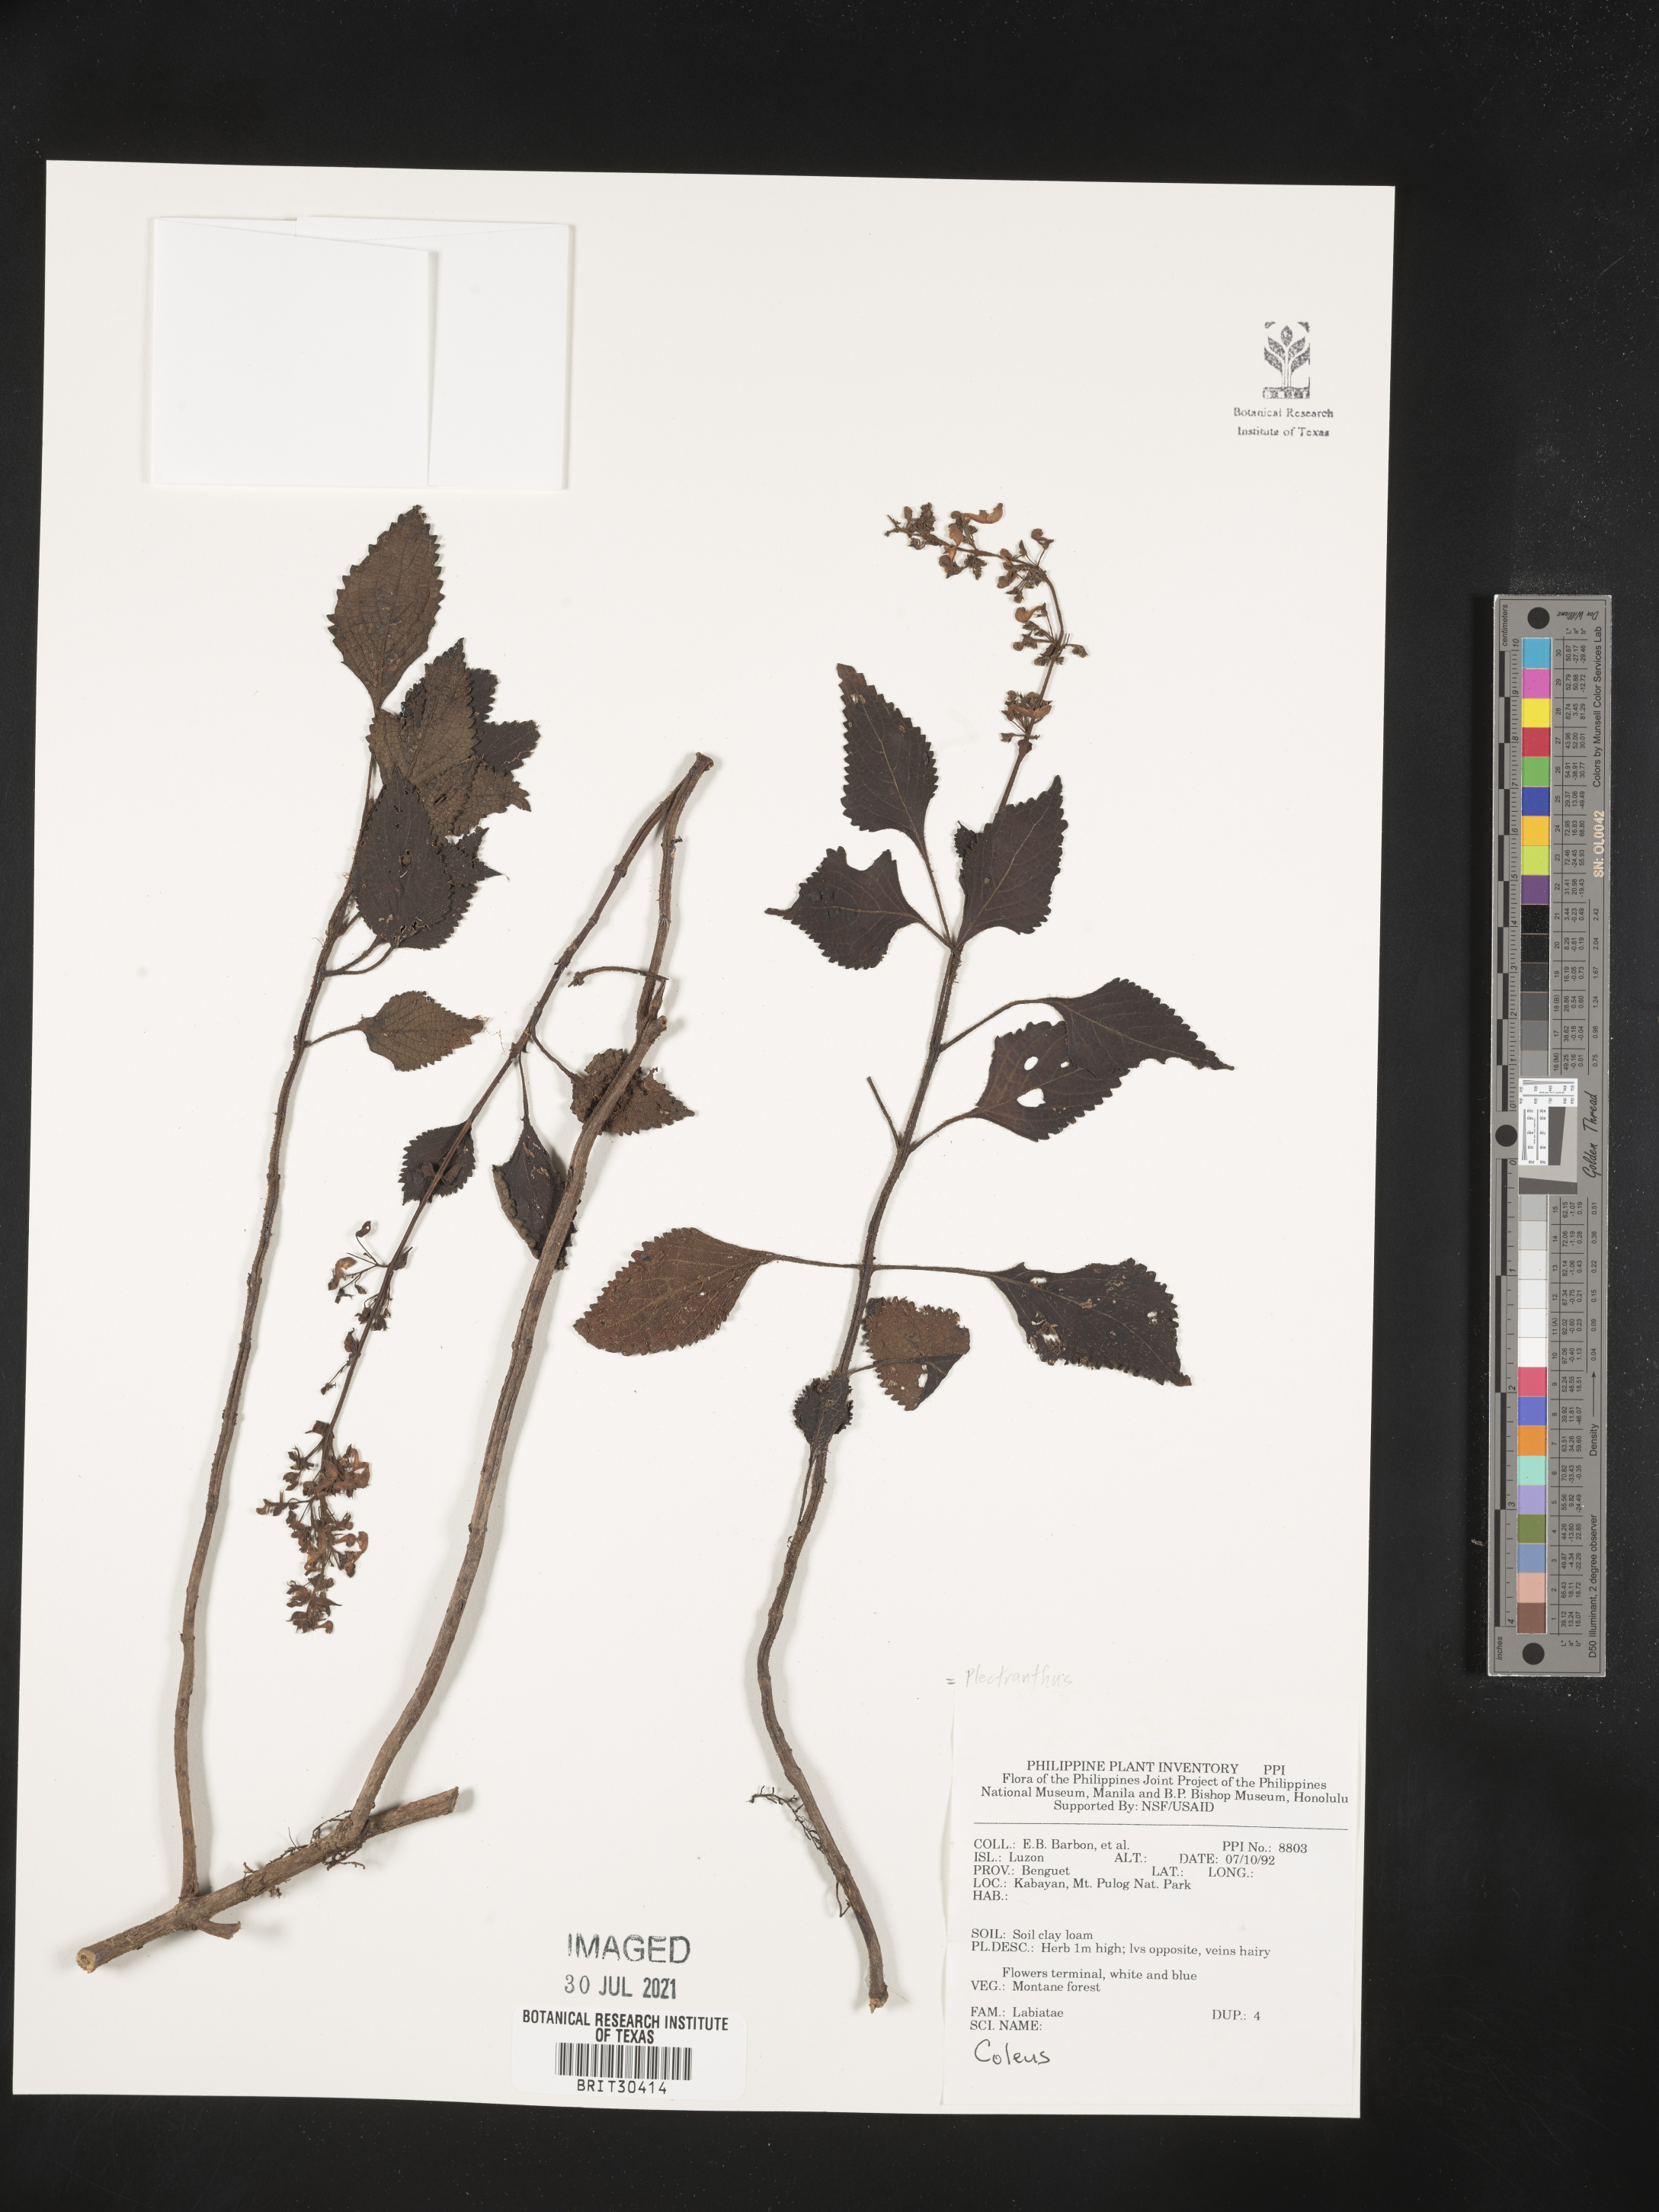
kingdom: Plantae
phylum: Tracheophyta
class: Magnoliopsida
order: Lamiales
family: Lamiaceae
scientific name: Lamiaceae
